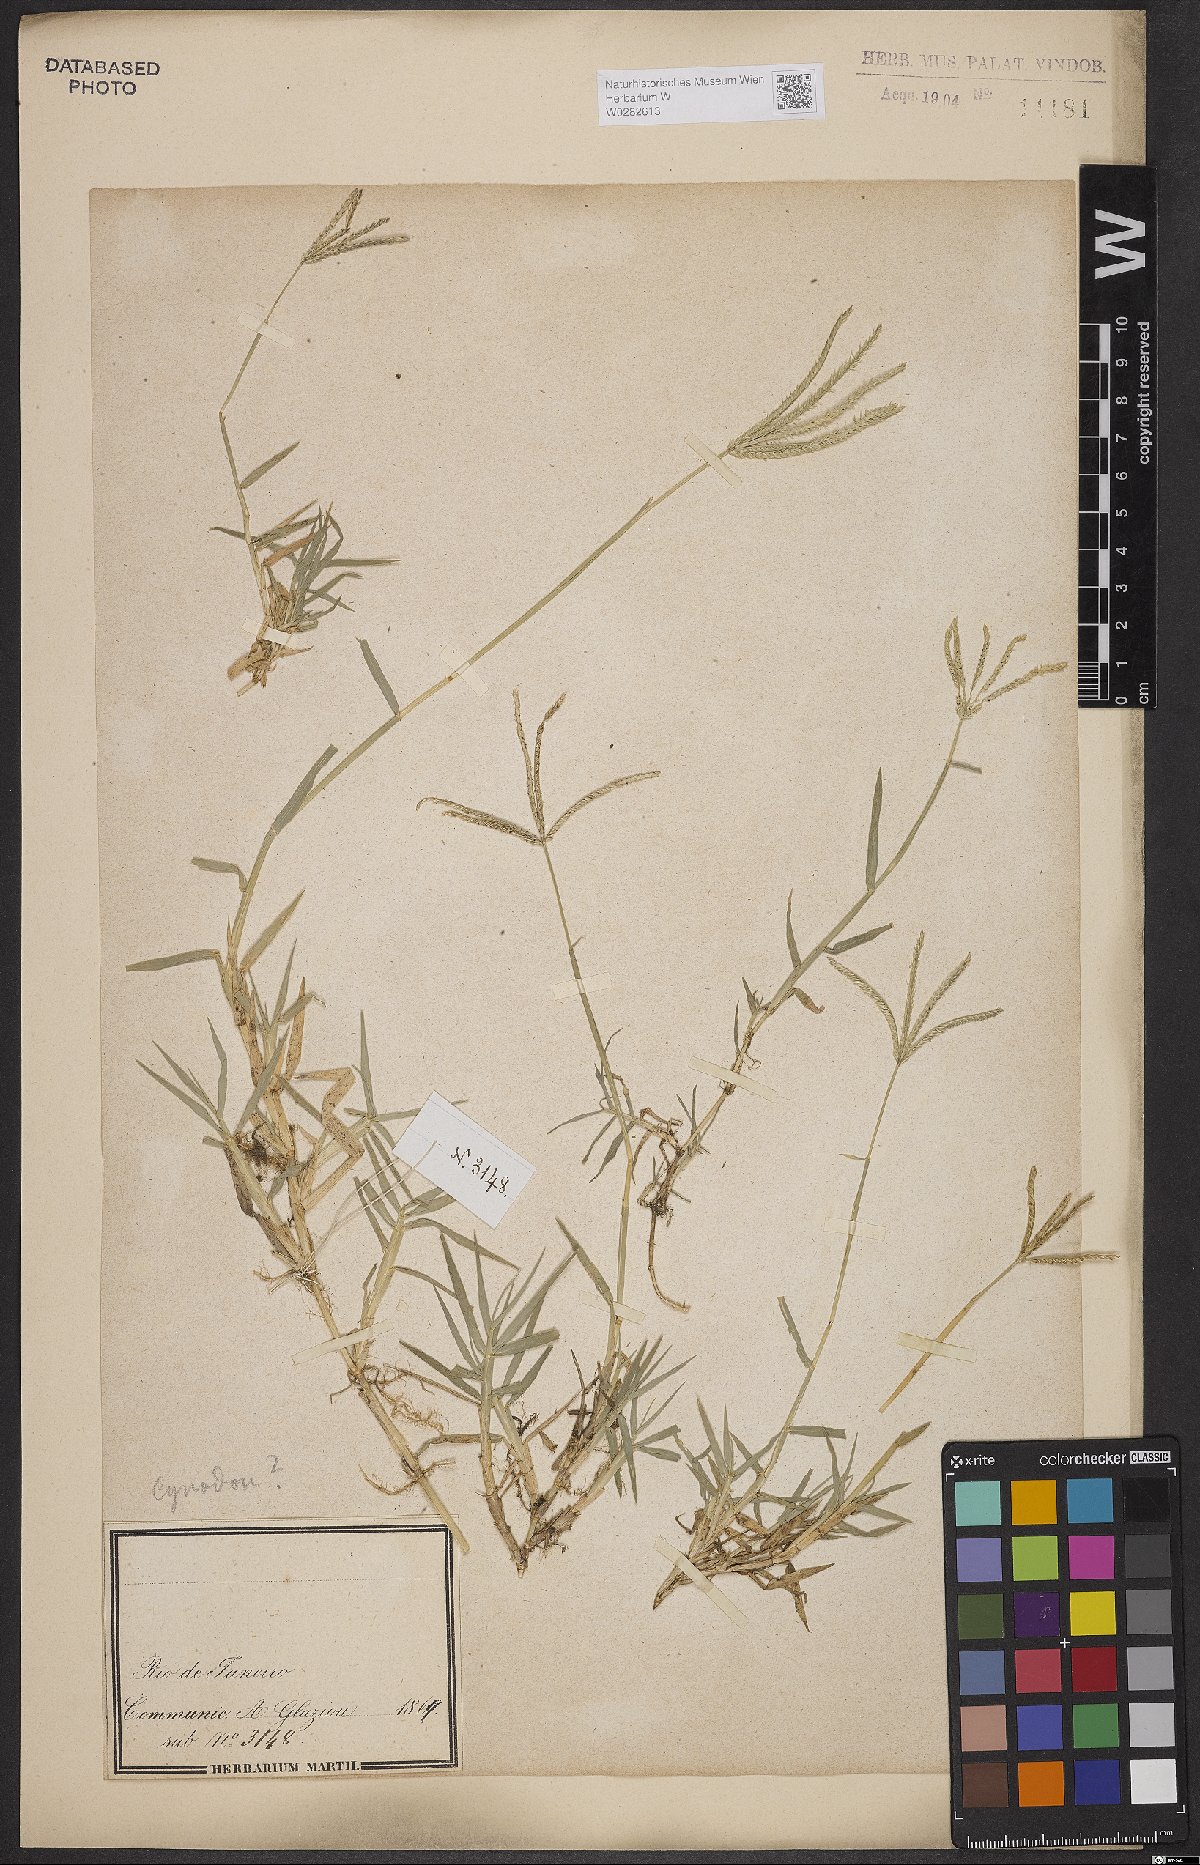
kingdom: Plantae
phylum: Tracheophyta
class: Liliopsida
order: Poales
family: Poaceae
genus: Cynodon
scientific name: Cynodon dactylon
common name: Bermuda grass
